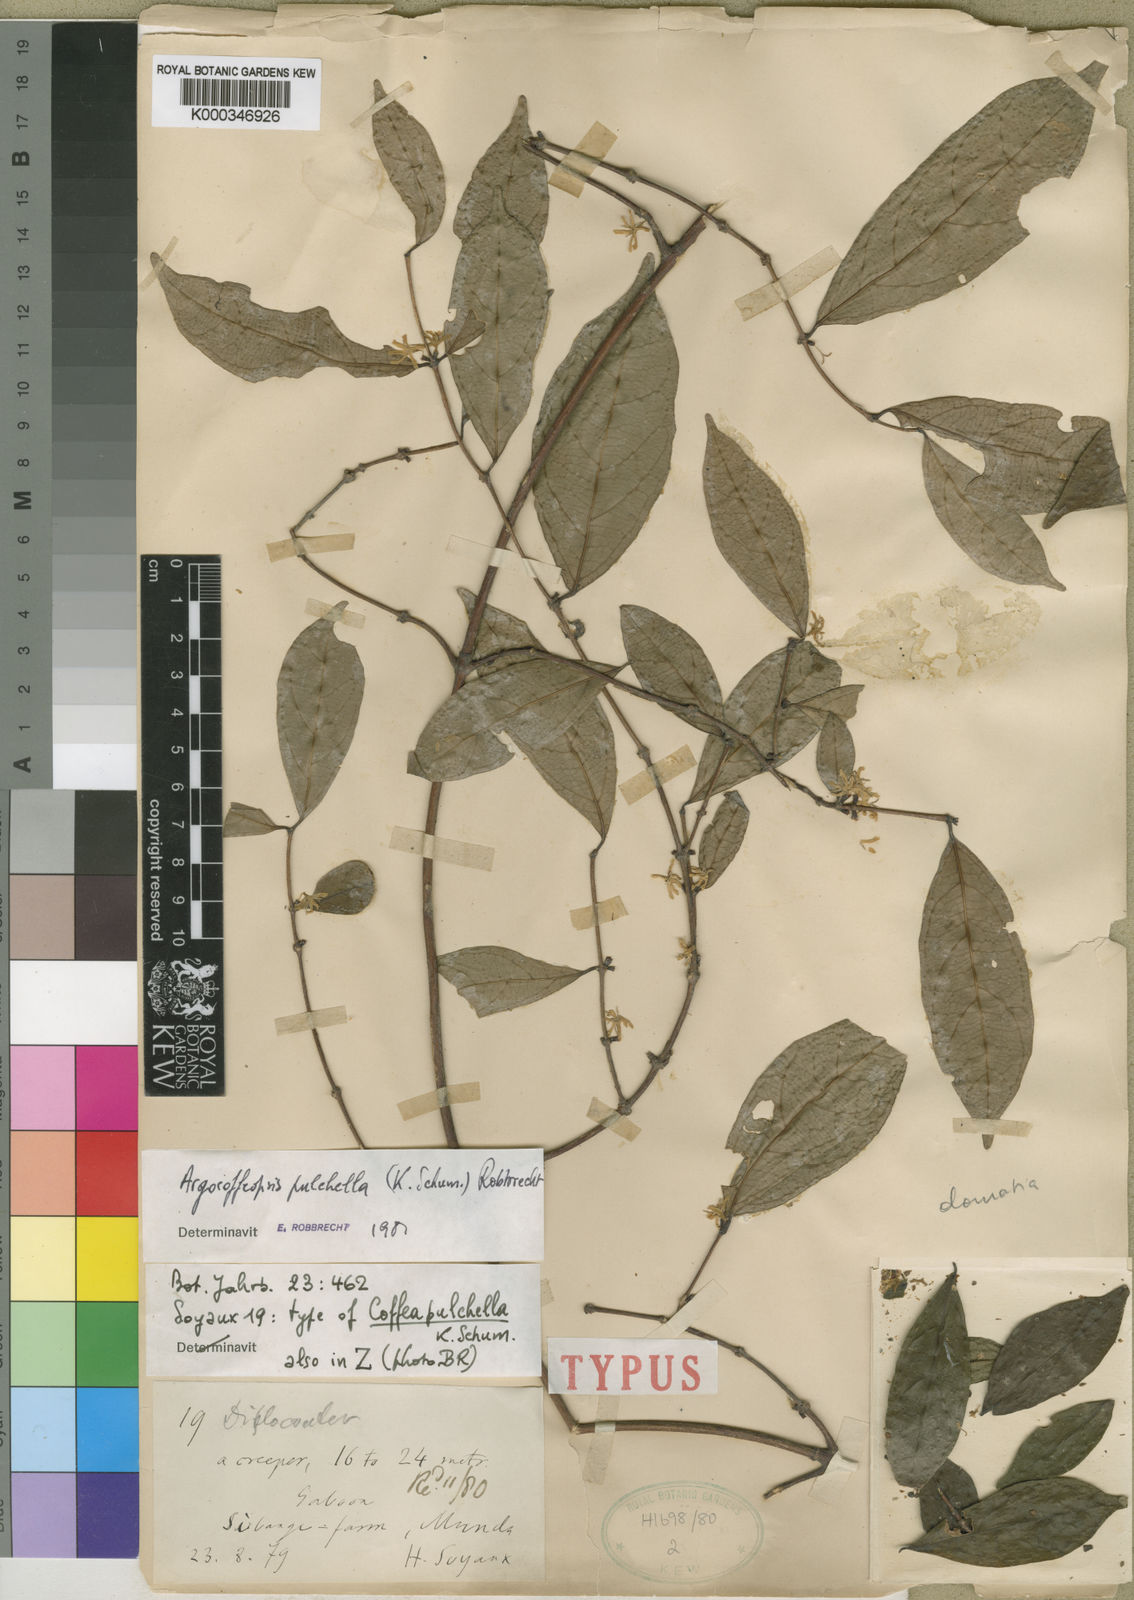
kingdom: Plantae
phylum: Tracheophyta
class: Magnoliopsida
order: Gentianales
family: Rubiaceae
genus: Argocoffeopsis
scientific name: Argocoffeopsis pulchella
